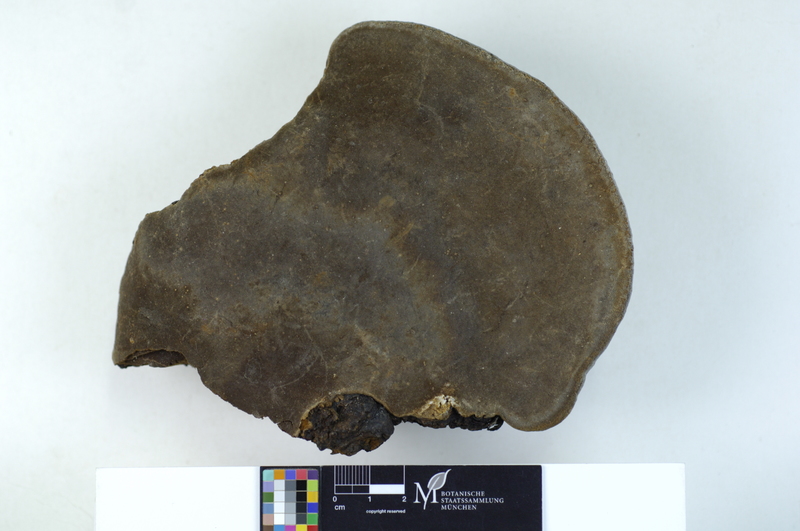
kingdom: Fungi
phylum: Basidiomycota
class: Agaricomycetes
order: Hymenochaetales
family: Hymenochaetaceae
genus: Phellinus
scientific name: Phellinus igniarius
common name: Willow bracket
